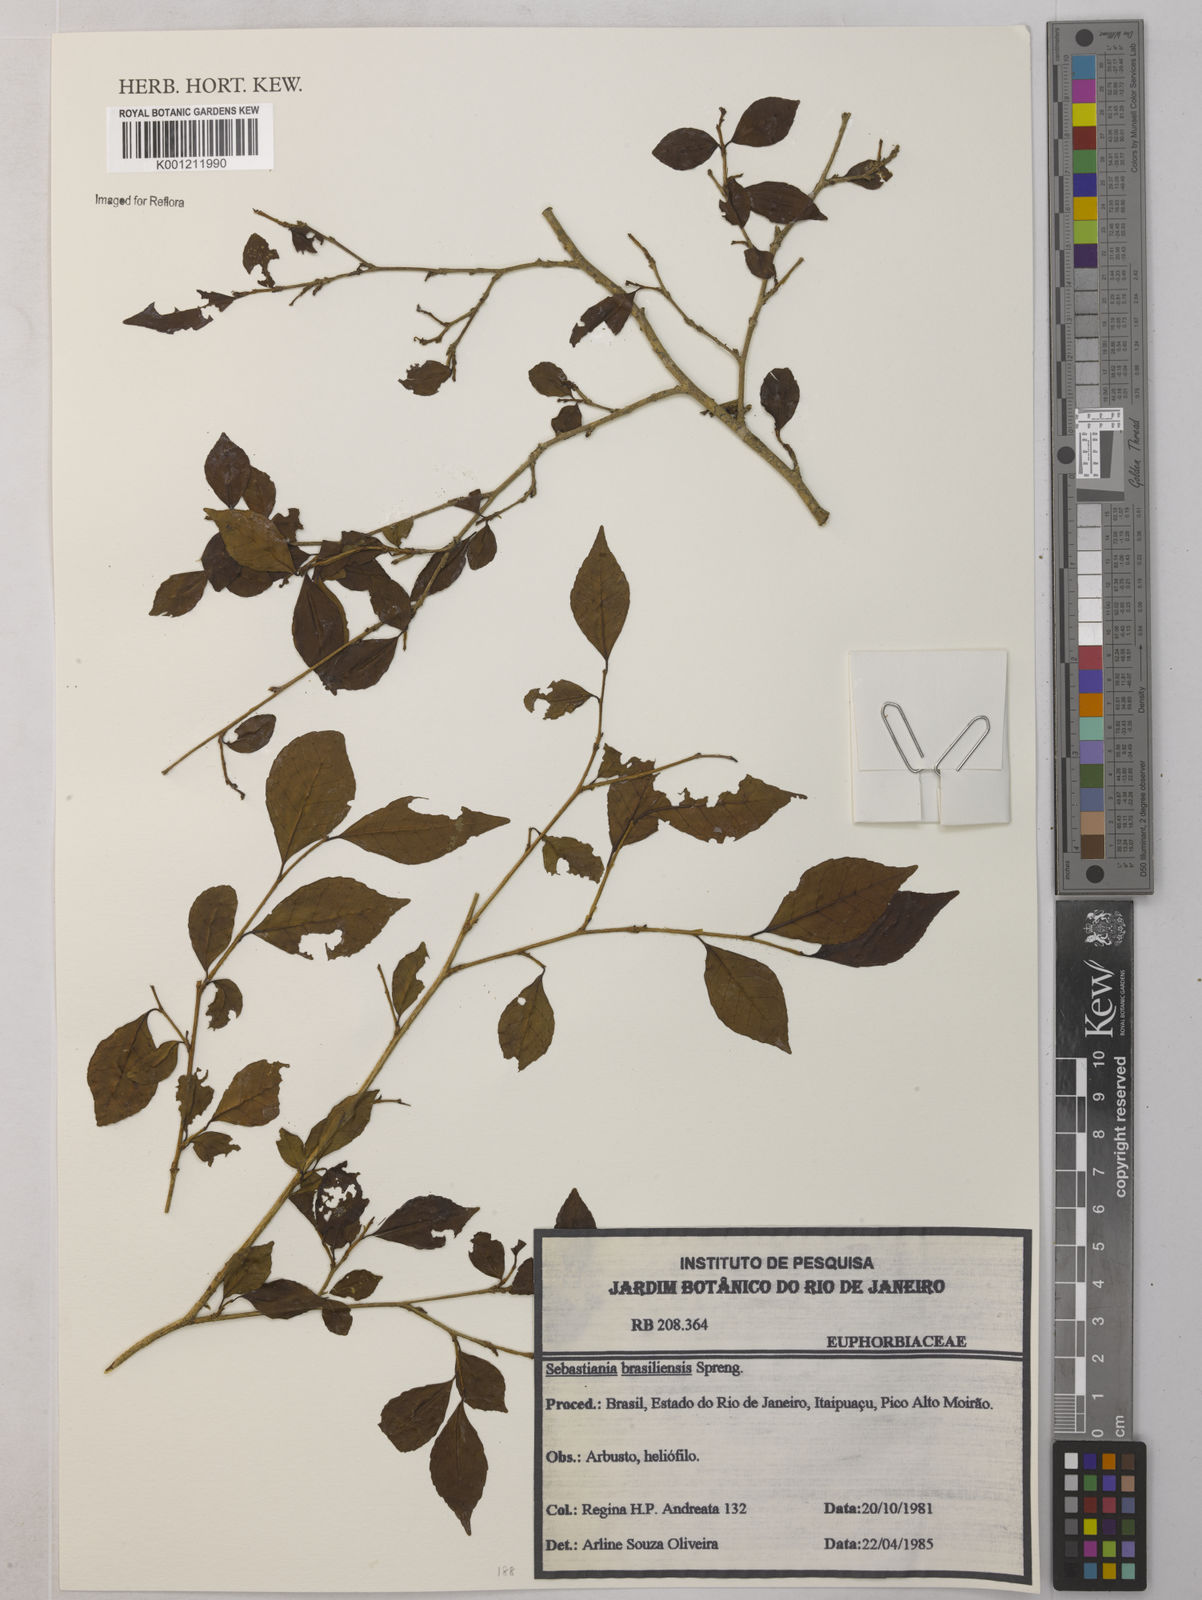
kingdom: Plantae
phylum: Tracheophyta
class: Magnoliopsida
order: Malpighiales
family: Euphorbiaceae
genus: Sebastiania
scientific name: Sebastiania brasiliensis
